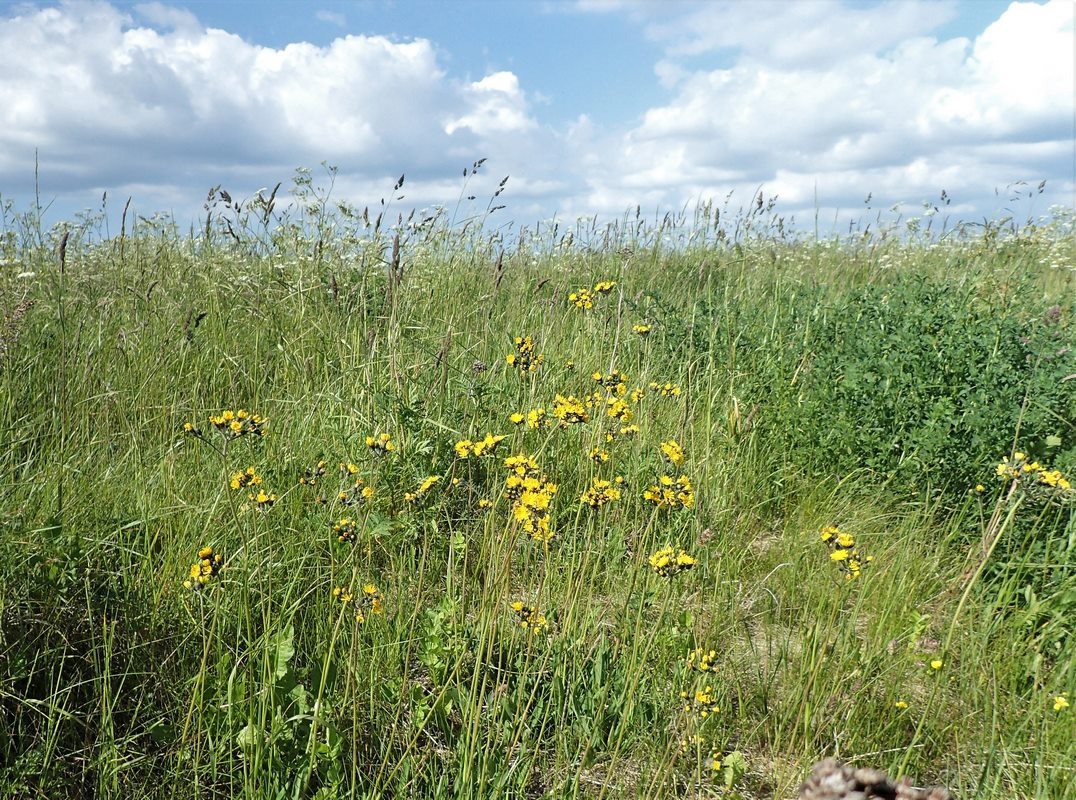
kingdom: Plantae
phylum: Tracheophyta
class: Magnoliopsida
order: Asterales
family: Asteraceae
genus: Pilosella
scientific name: Pilosella cymosa
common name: Blød kvast-høgeurt
